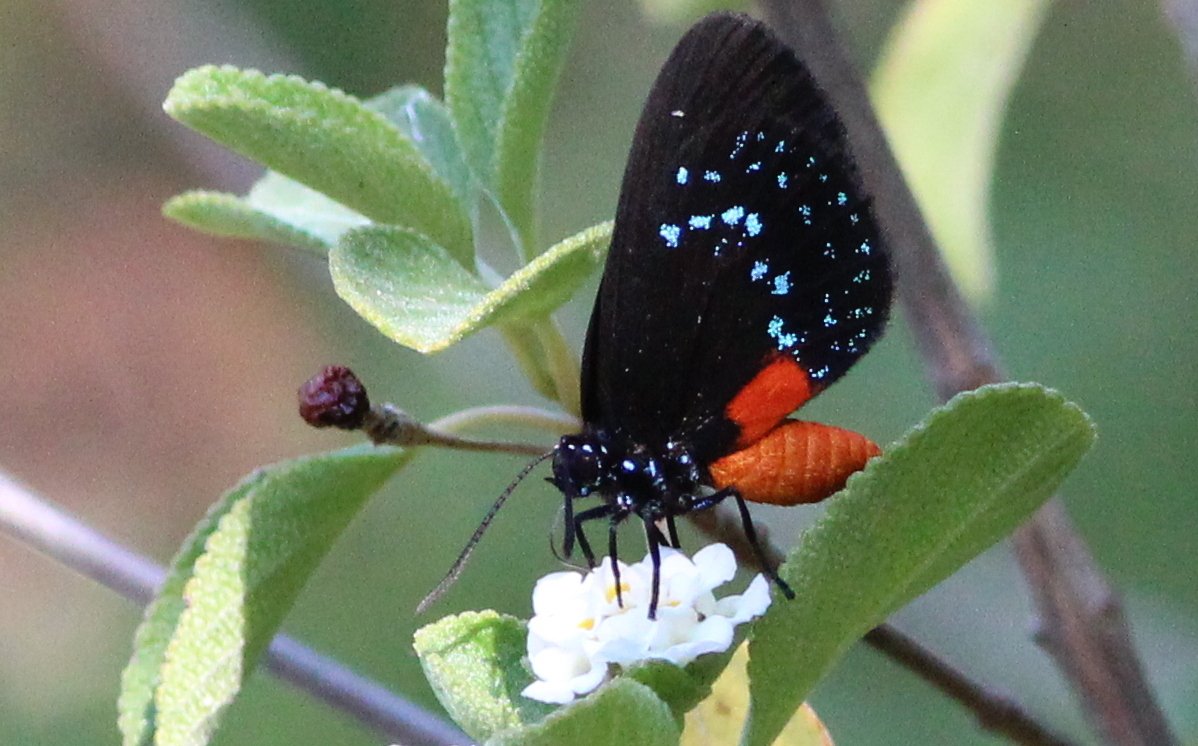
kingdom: Animalia
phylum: Arthropoda
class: Insecta
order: Lepidoptera
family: Lycaenidae
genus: Eumaeus
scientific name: Eumaeus atala
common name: Atala
